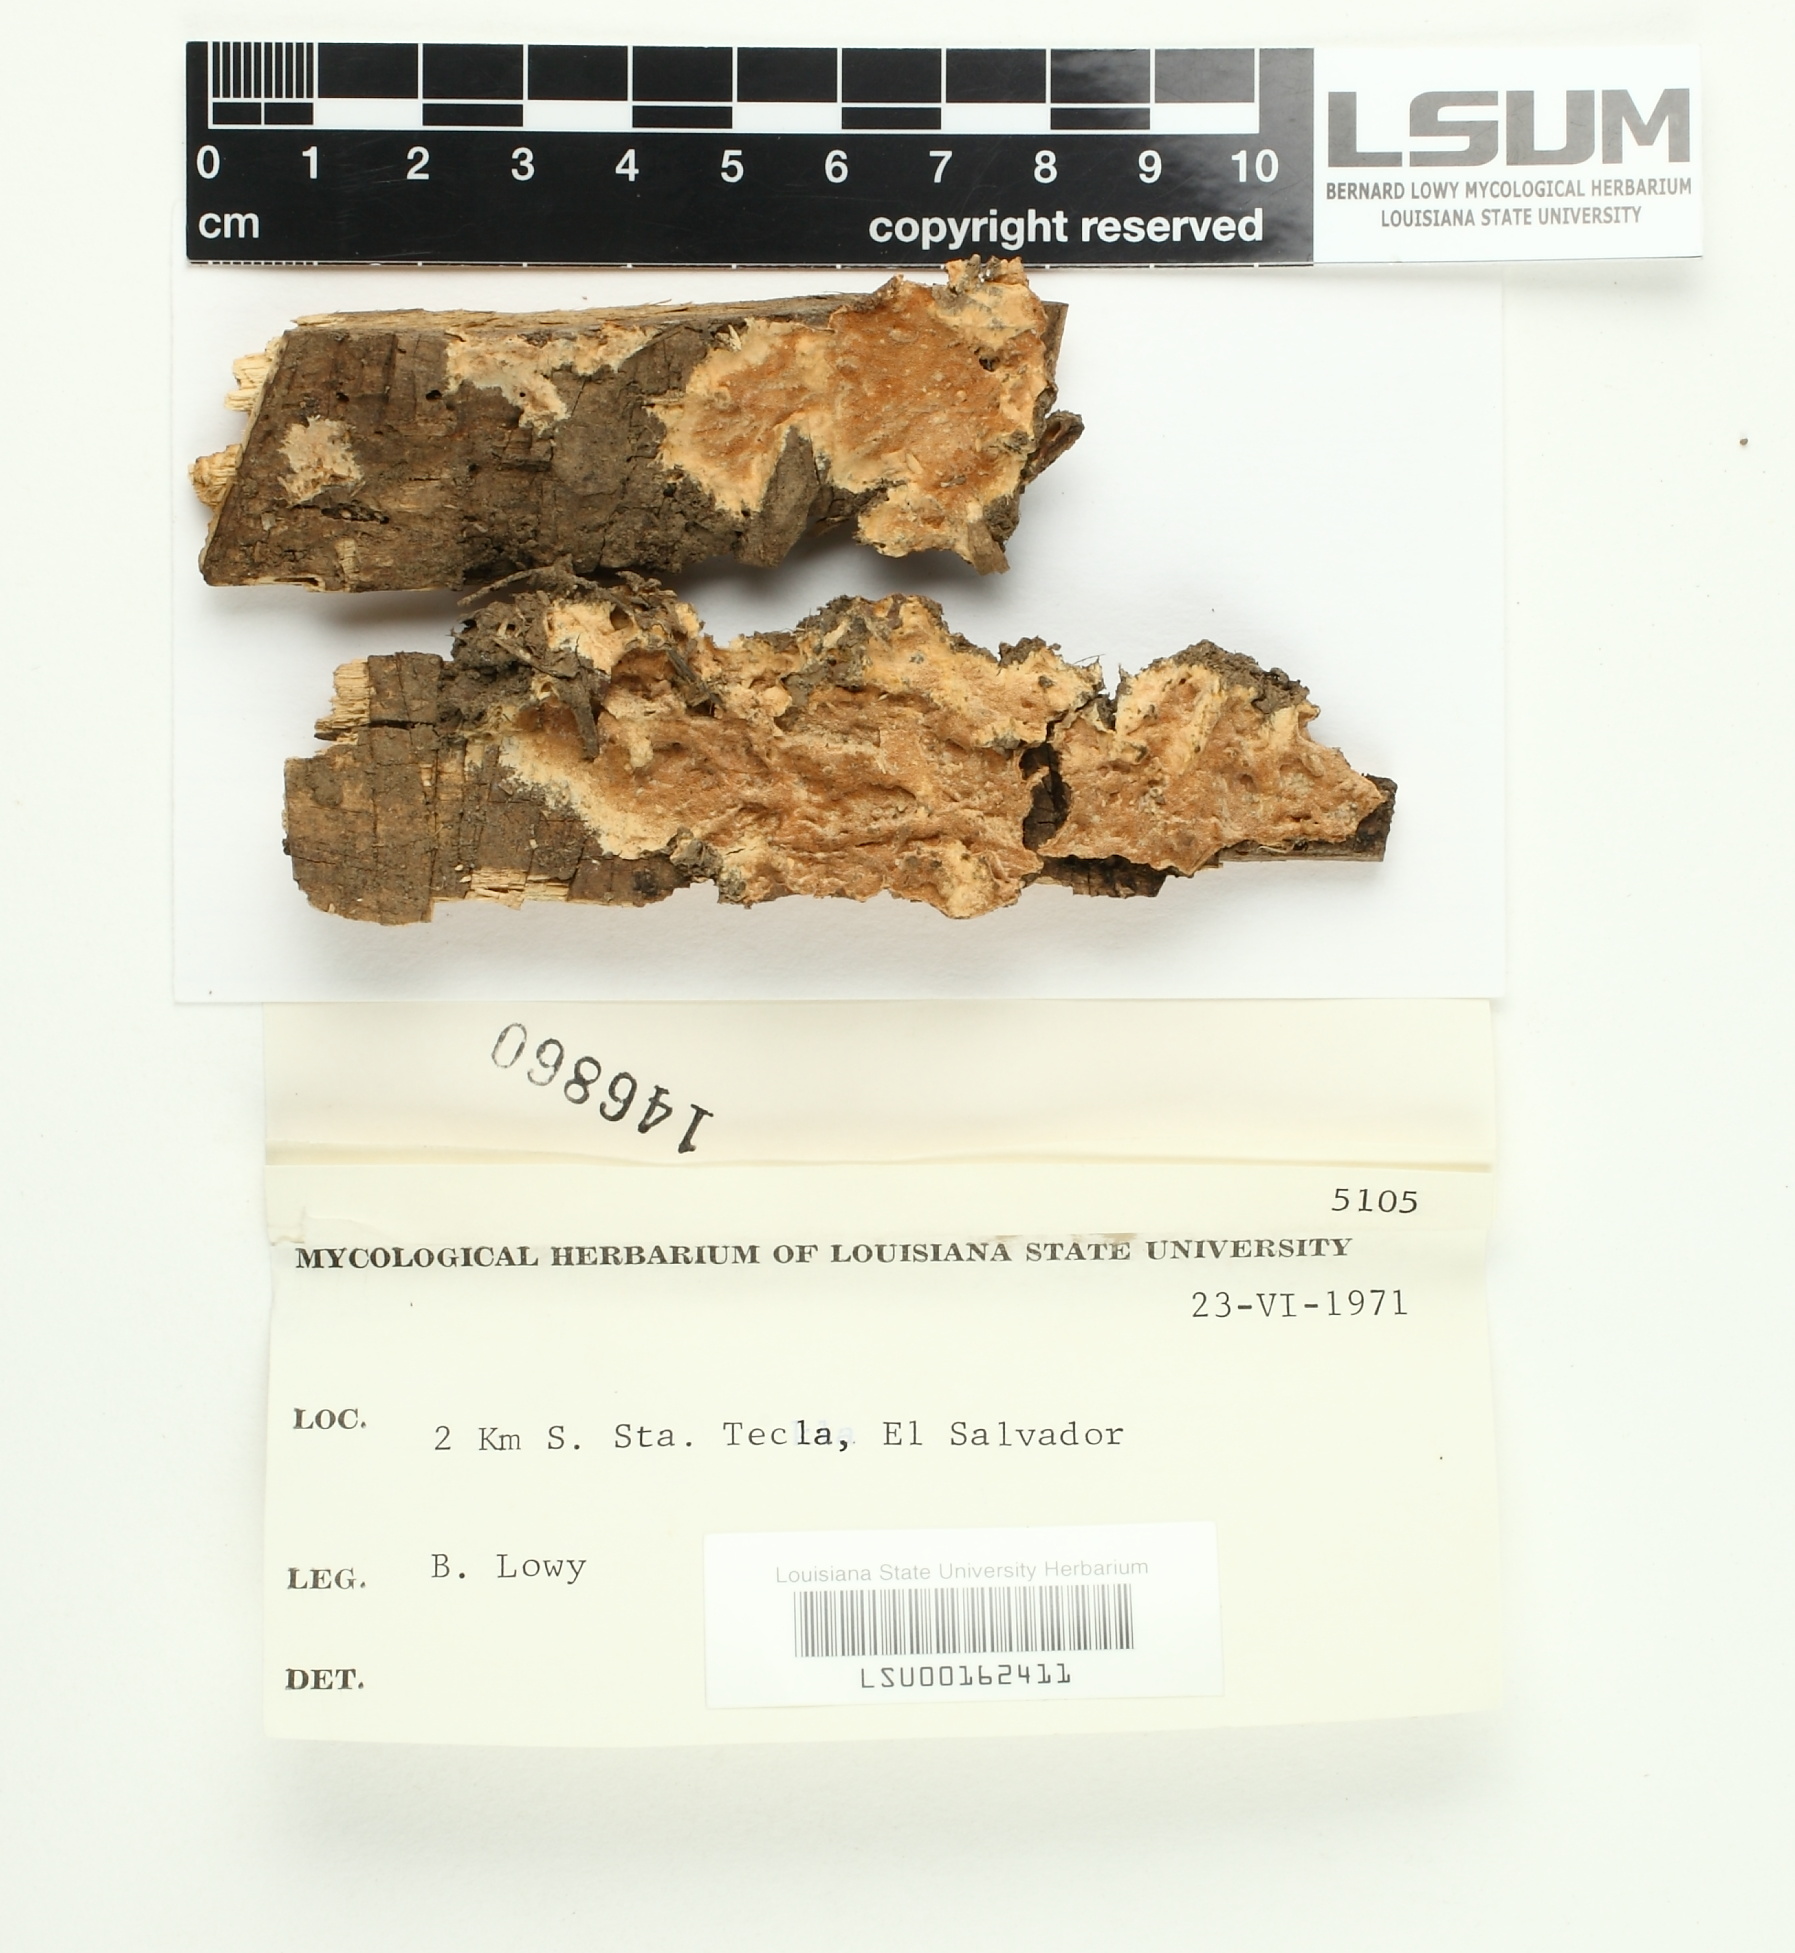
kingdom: Fungi
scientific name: Fungi
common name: Fungi
